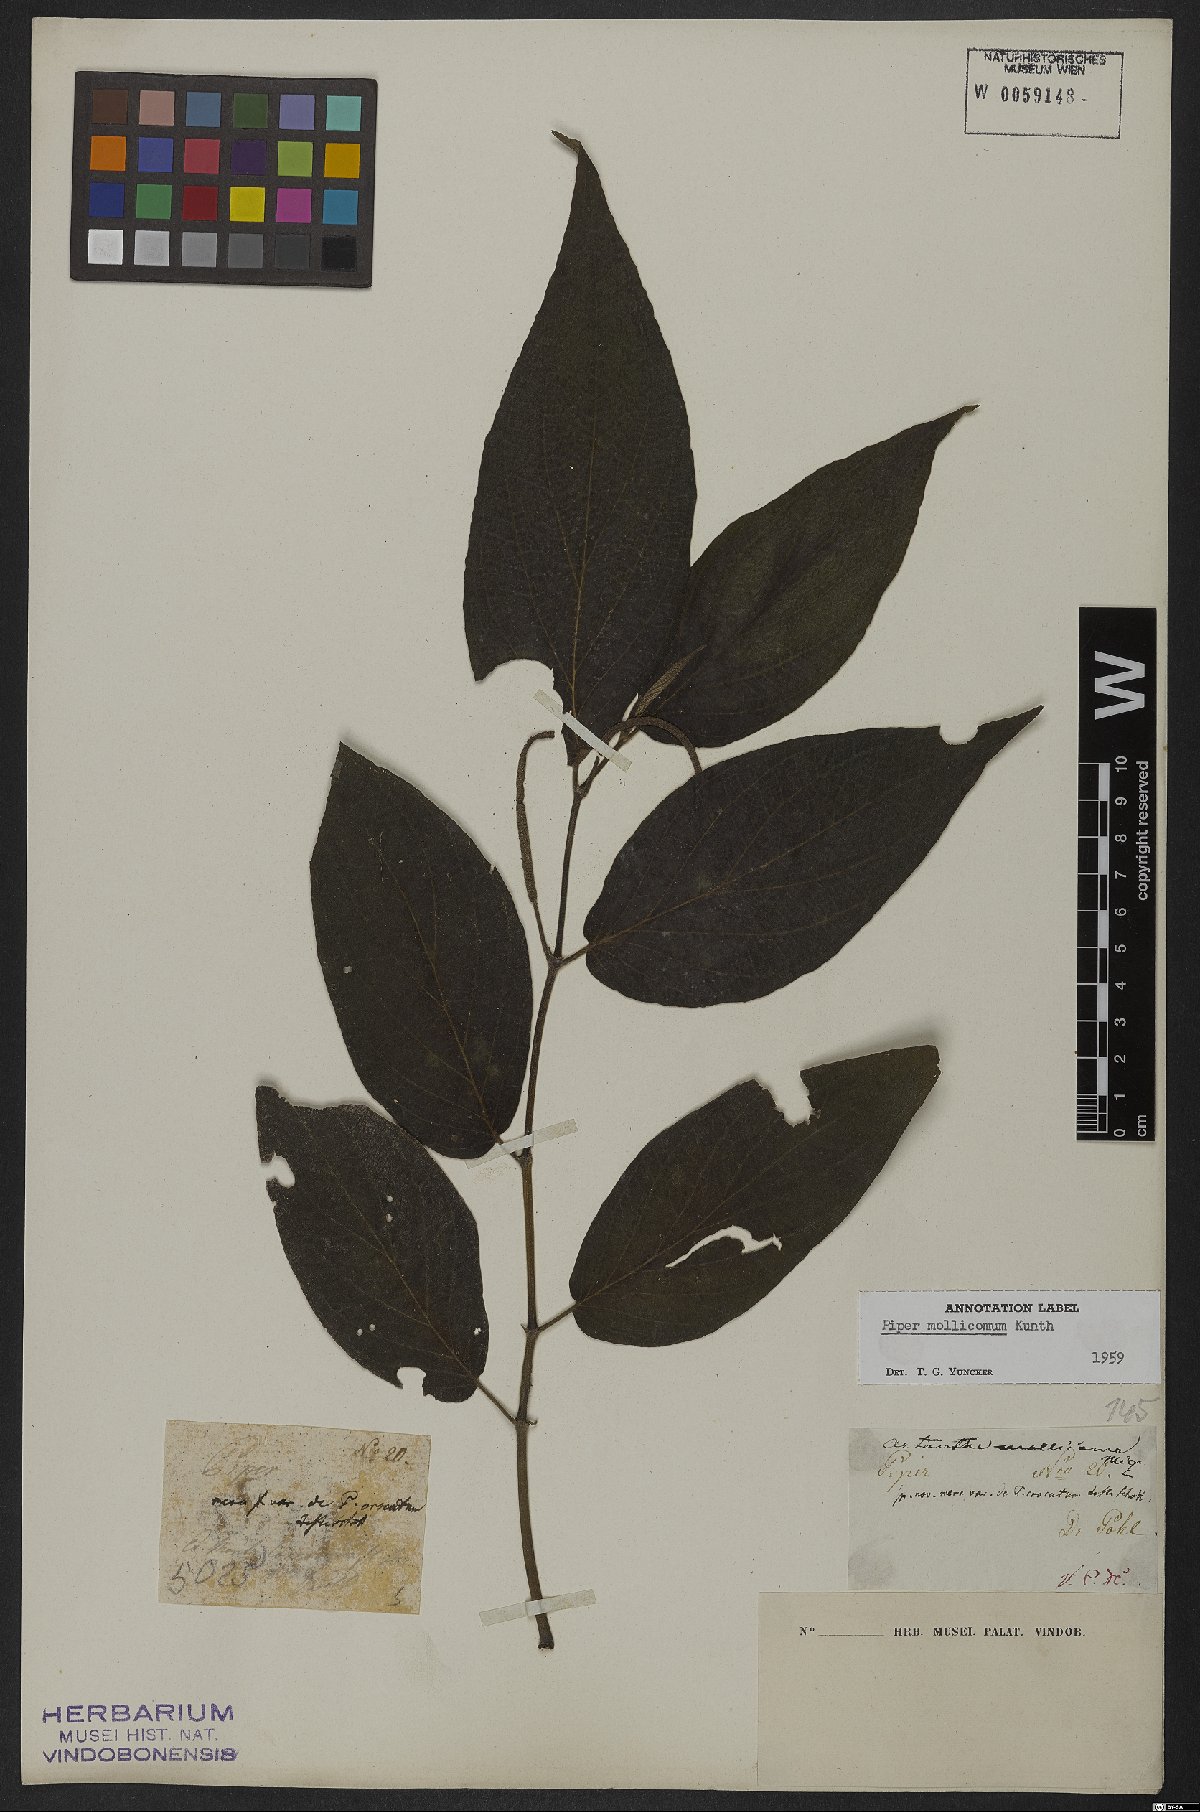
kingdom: Plantae
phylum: Tracheophyta
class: Magnoliopsida
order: Piperales
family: Piperaceae
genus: Piper
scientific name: Piper mollicomum
